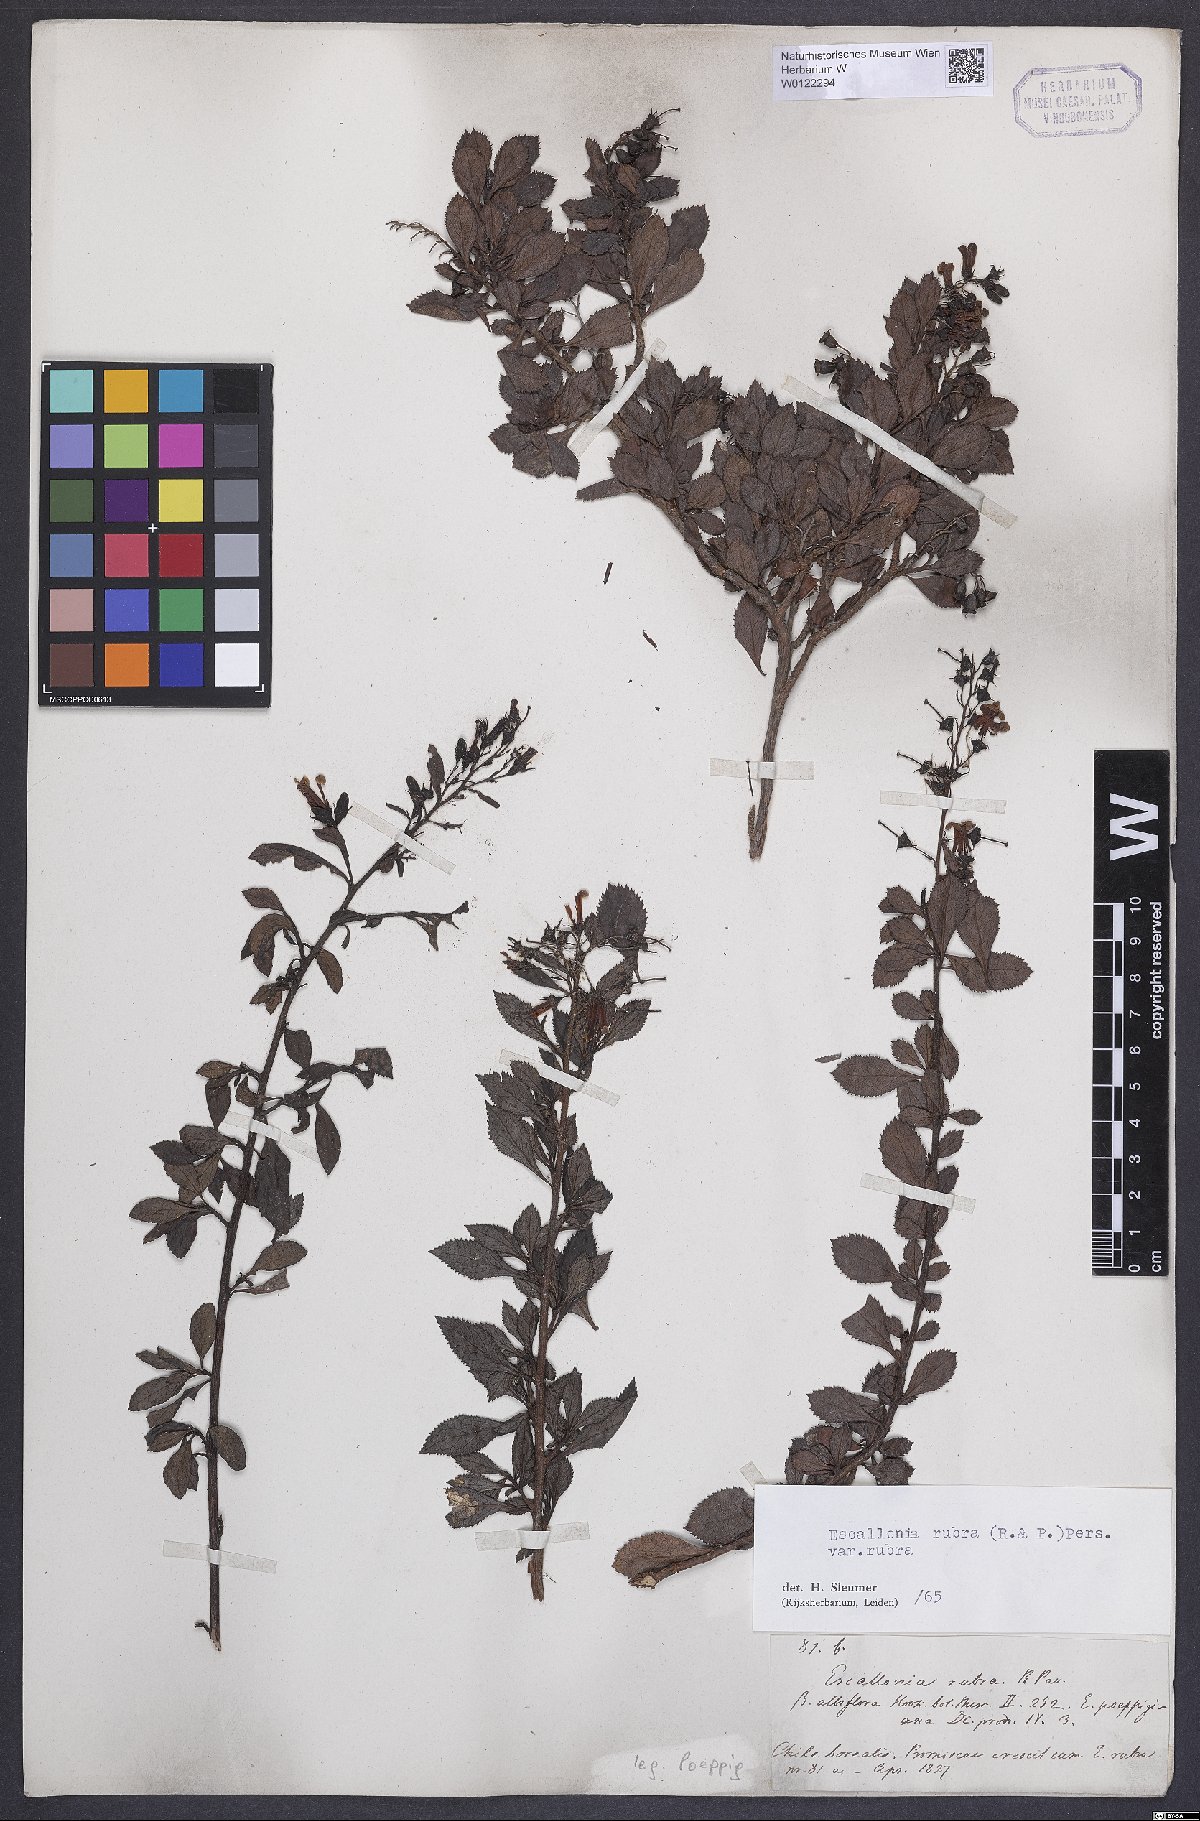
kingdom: Plantae
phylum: Tracheophyta
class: Magnoliopsida
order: Escalloniales
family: Escalloniaceae
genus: Escallonia
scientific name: Escallonia rubra
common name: Redclaws
